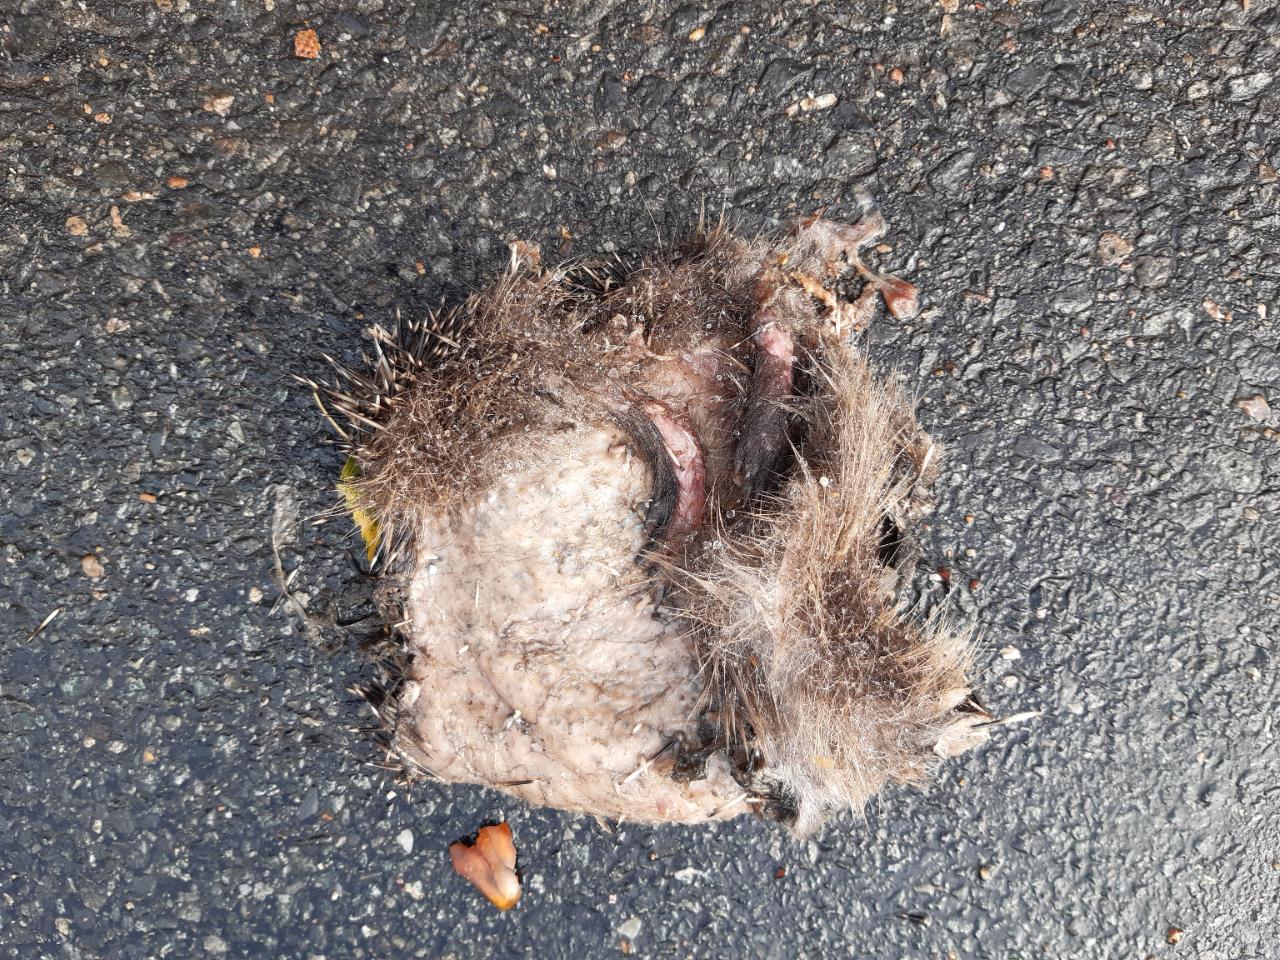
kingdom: Animalia
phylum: Chordata
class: Mammalia
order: Erinaceomorpha
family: Erinaceidae
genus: Erinaceus
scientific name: Erinaceus
